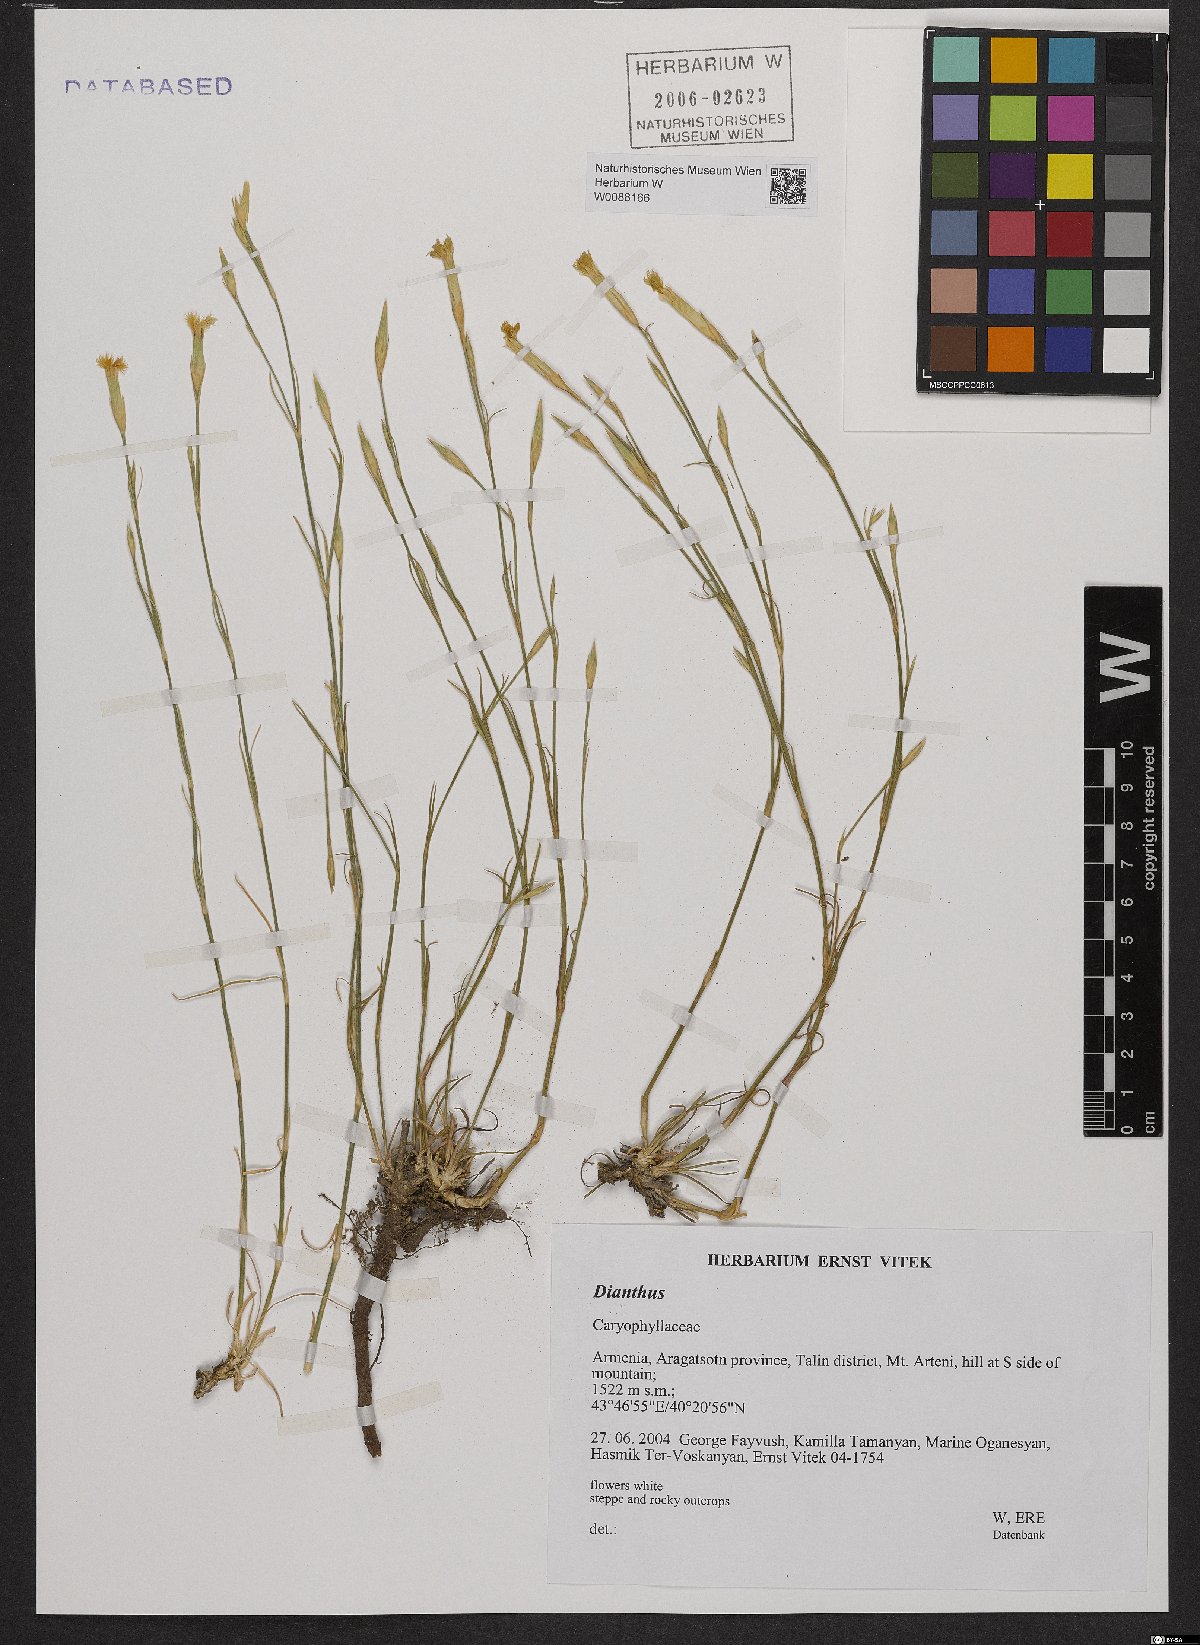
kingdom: Plantae
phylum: Tracheophyta
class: Magnoliopsida
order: Caryophyllales
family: Caryophyllaceae
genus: Dianthus
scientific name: Dianthus
